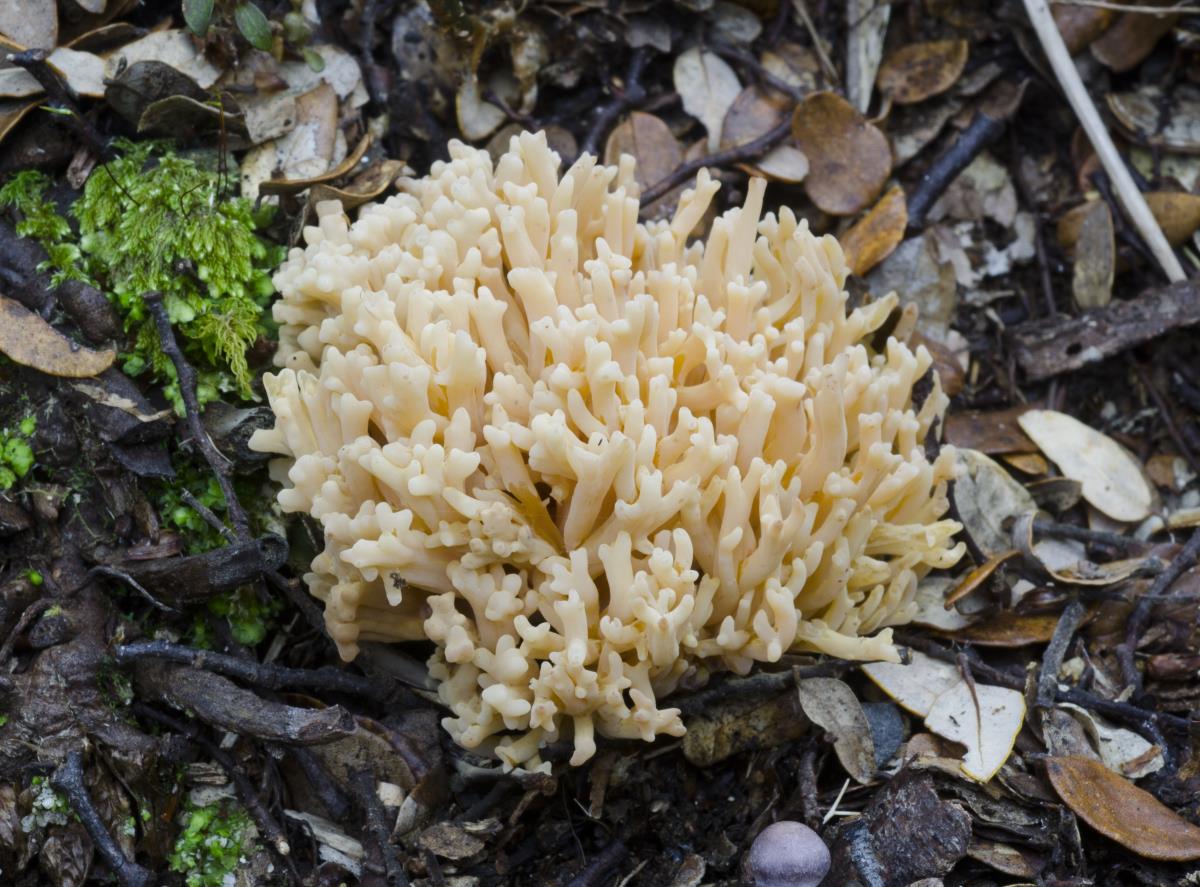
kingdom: Fungi
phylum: Basidiomycota
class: Agaricomycetes
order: Gomphales
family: Gomphaceae
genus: Ramaria
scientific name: Ramaria
